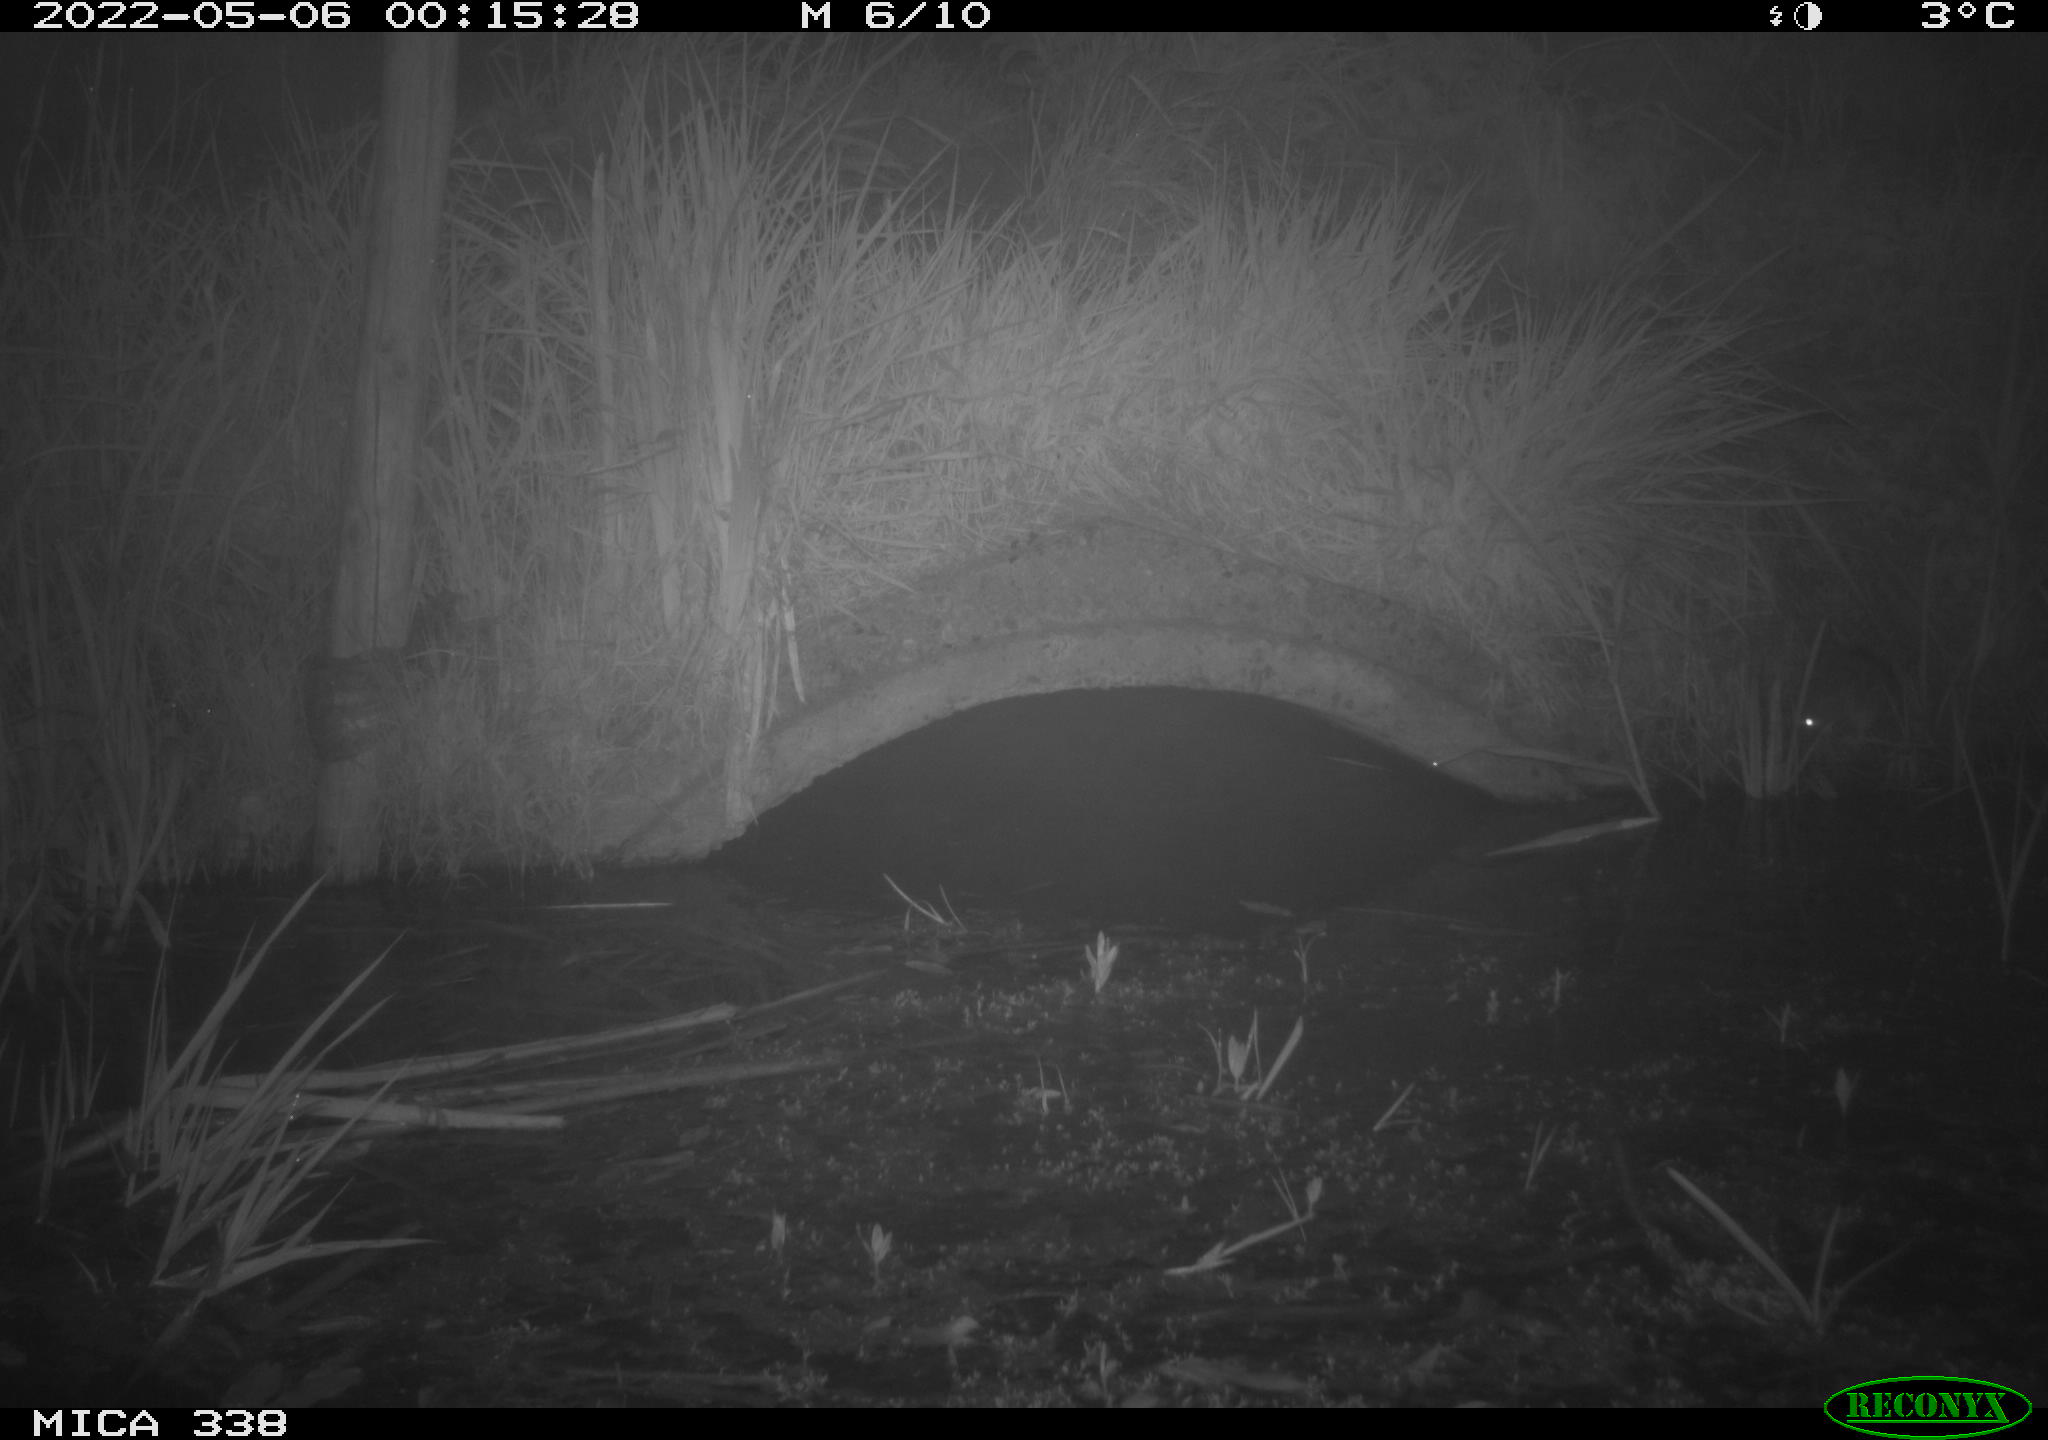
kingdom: Animalia
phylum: Chordata
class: Mammalia
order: Rodentia
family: Muridae
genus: Rattus
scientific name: Rattus norvegicus
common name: Brown rat
